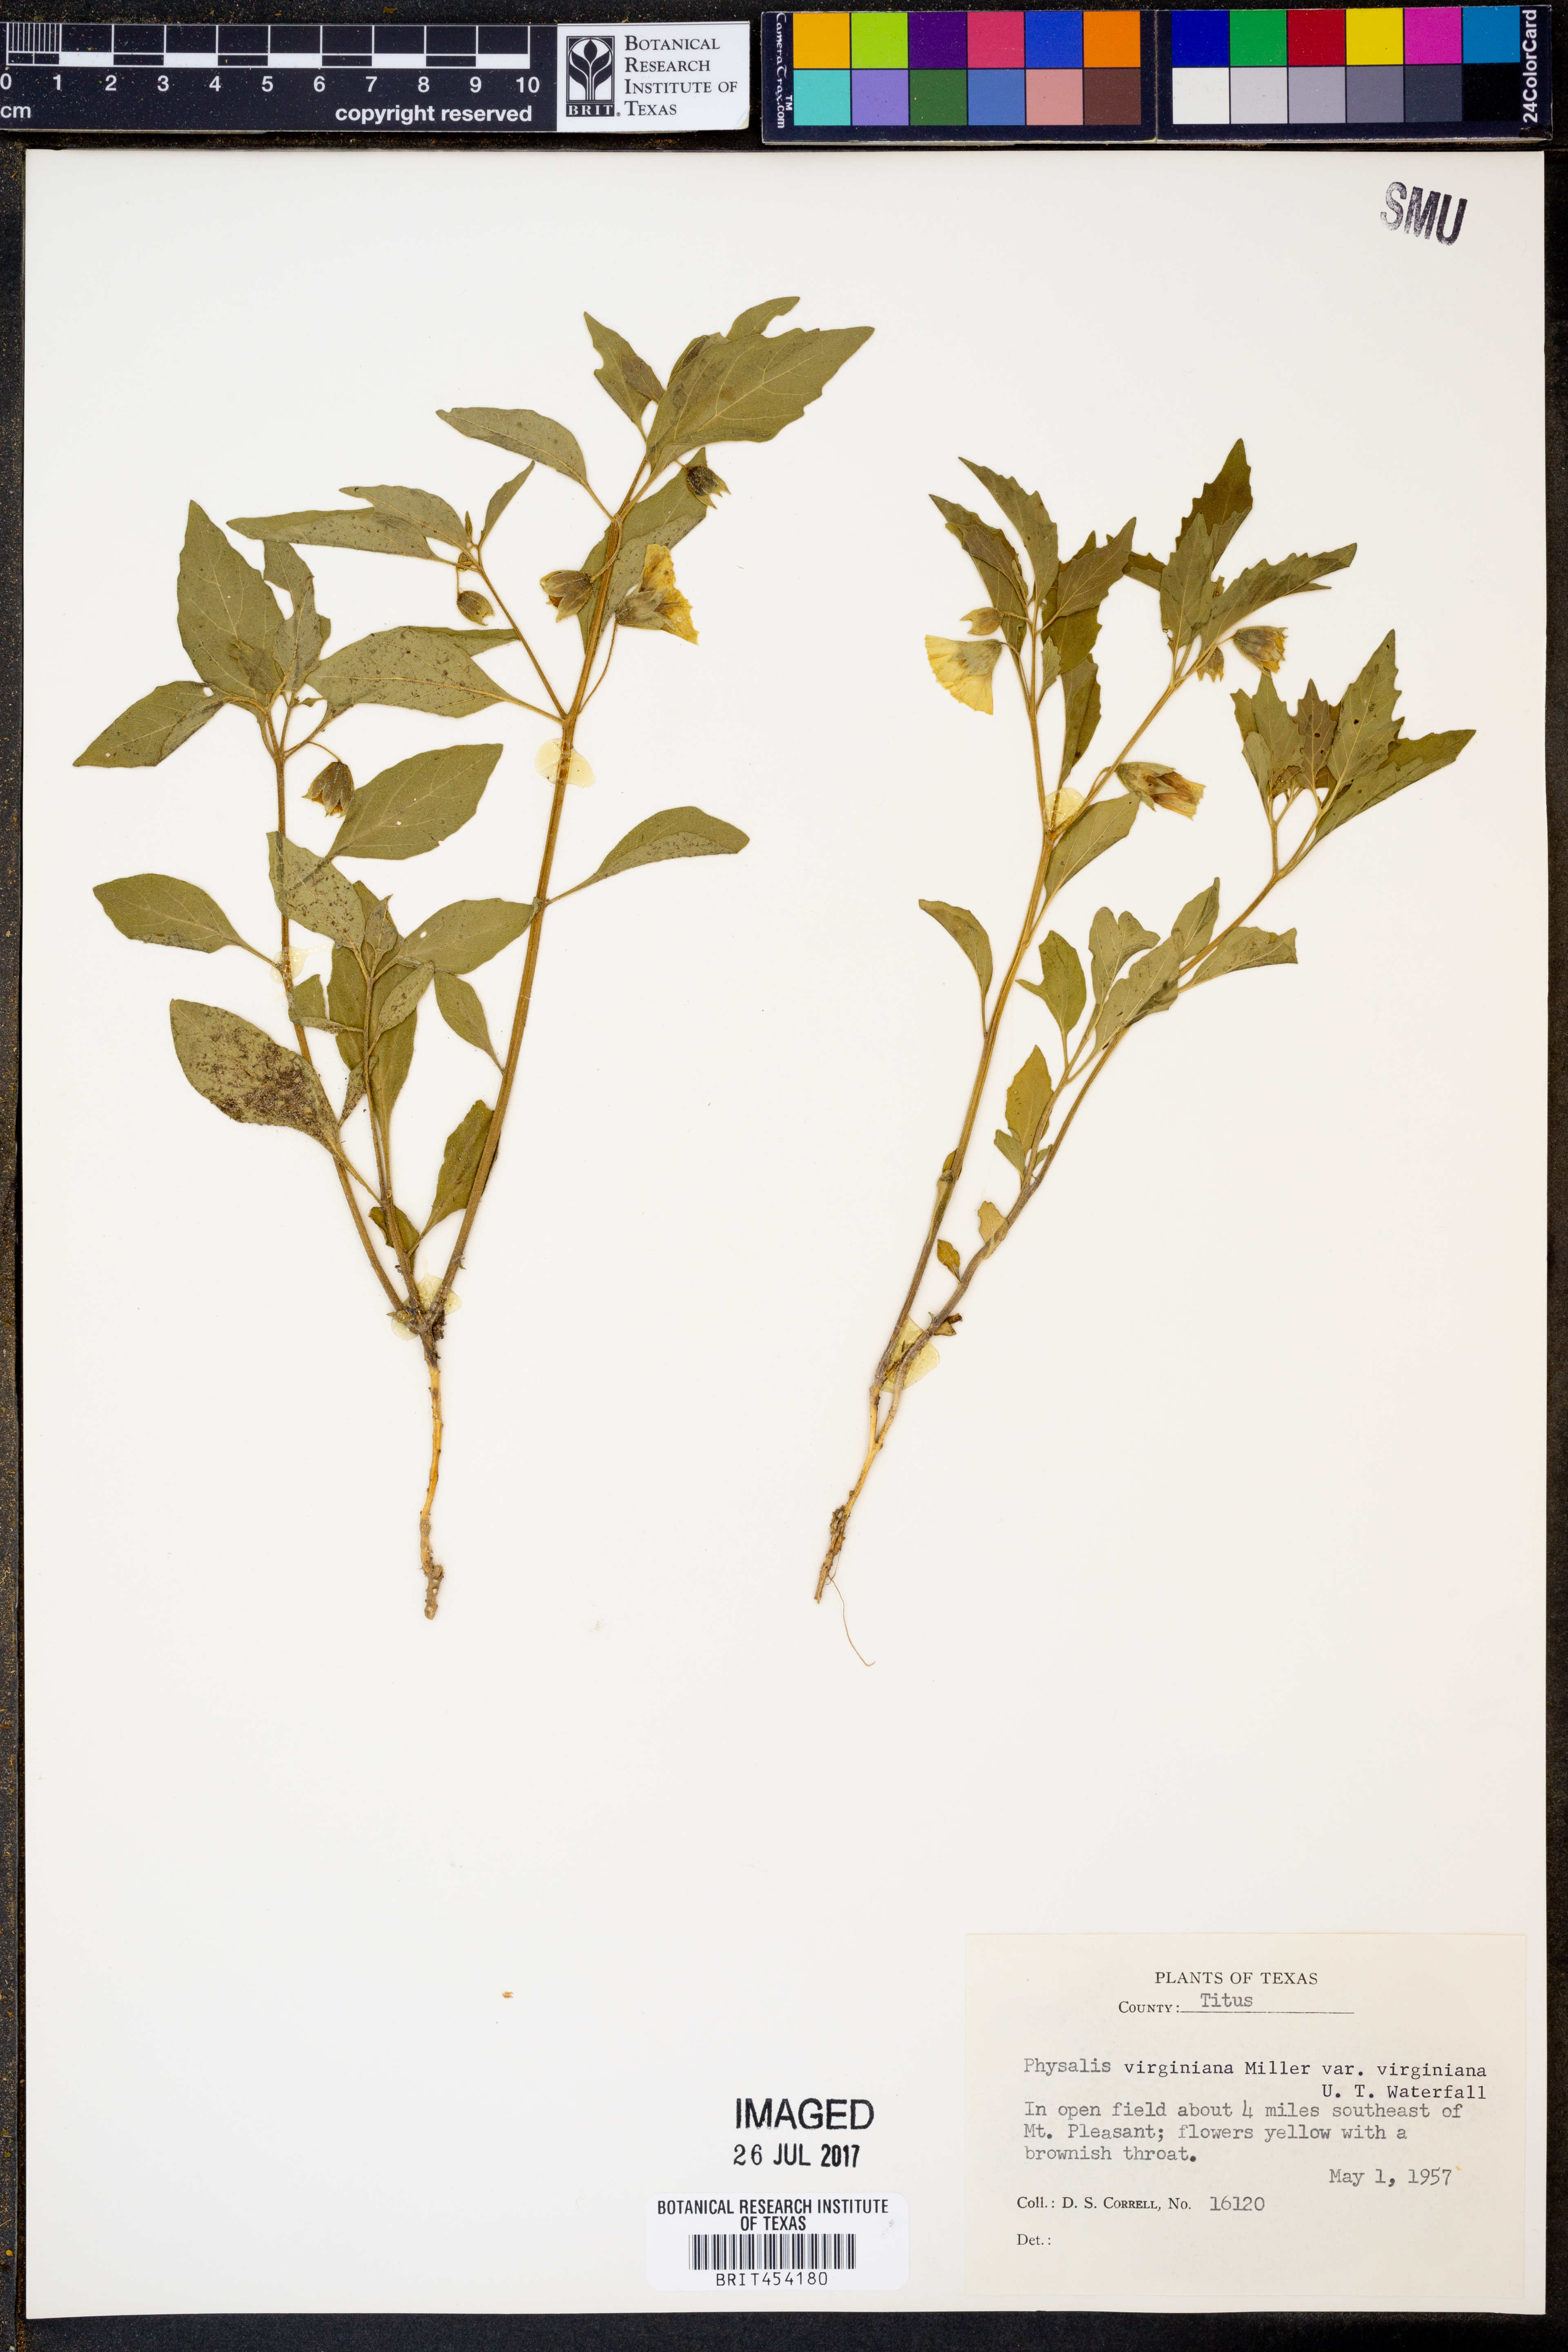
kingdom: Plantae
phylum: Tracheophyta
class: Magnoliopsida
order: Solanales
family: Solanaceae
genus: Physalis
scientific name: Physalis virginiana
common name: Virginia ground-cherry
